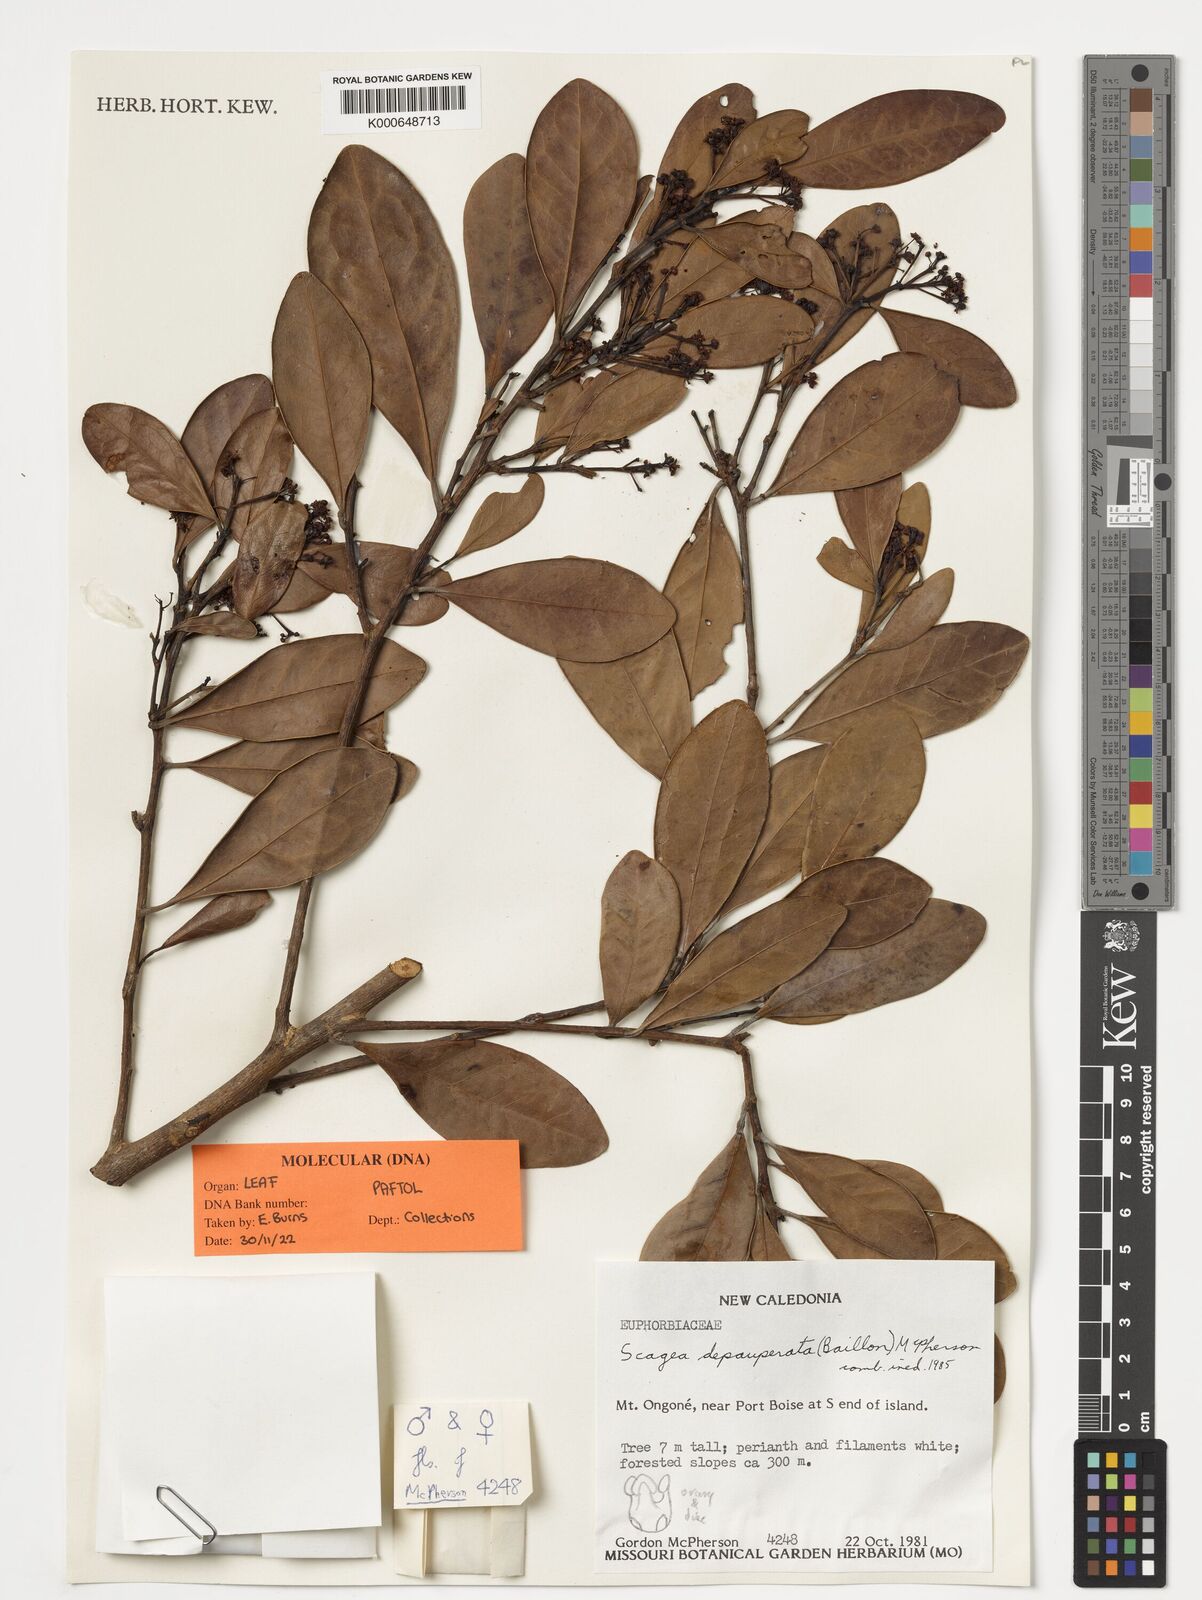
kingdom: Plantae
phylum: Tracheophyta
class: Magnoliopsida
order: Malpighiales
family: Picrodendraceae
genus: Scagea
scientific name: Scagea depauperata
